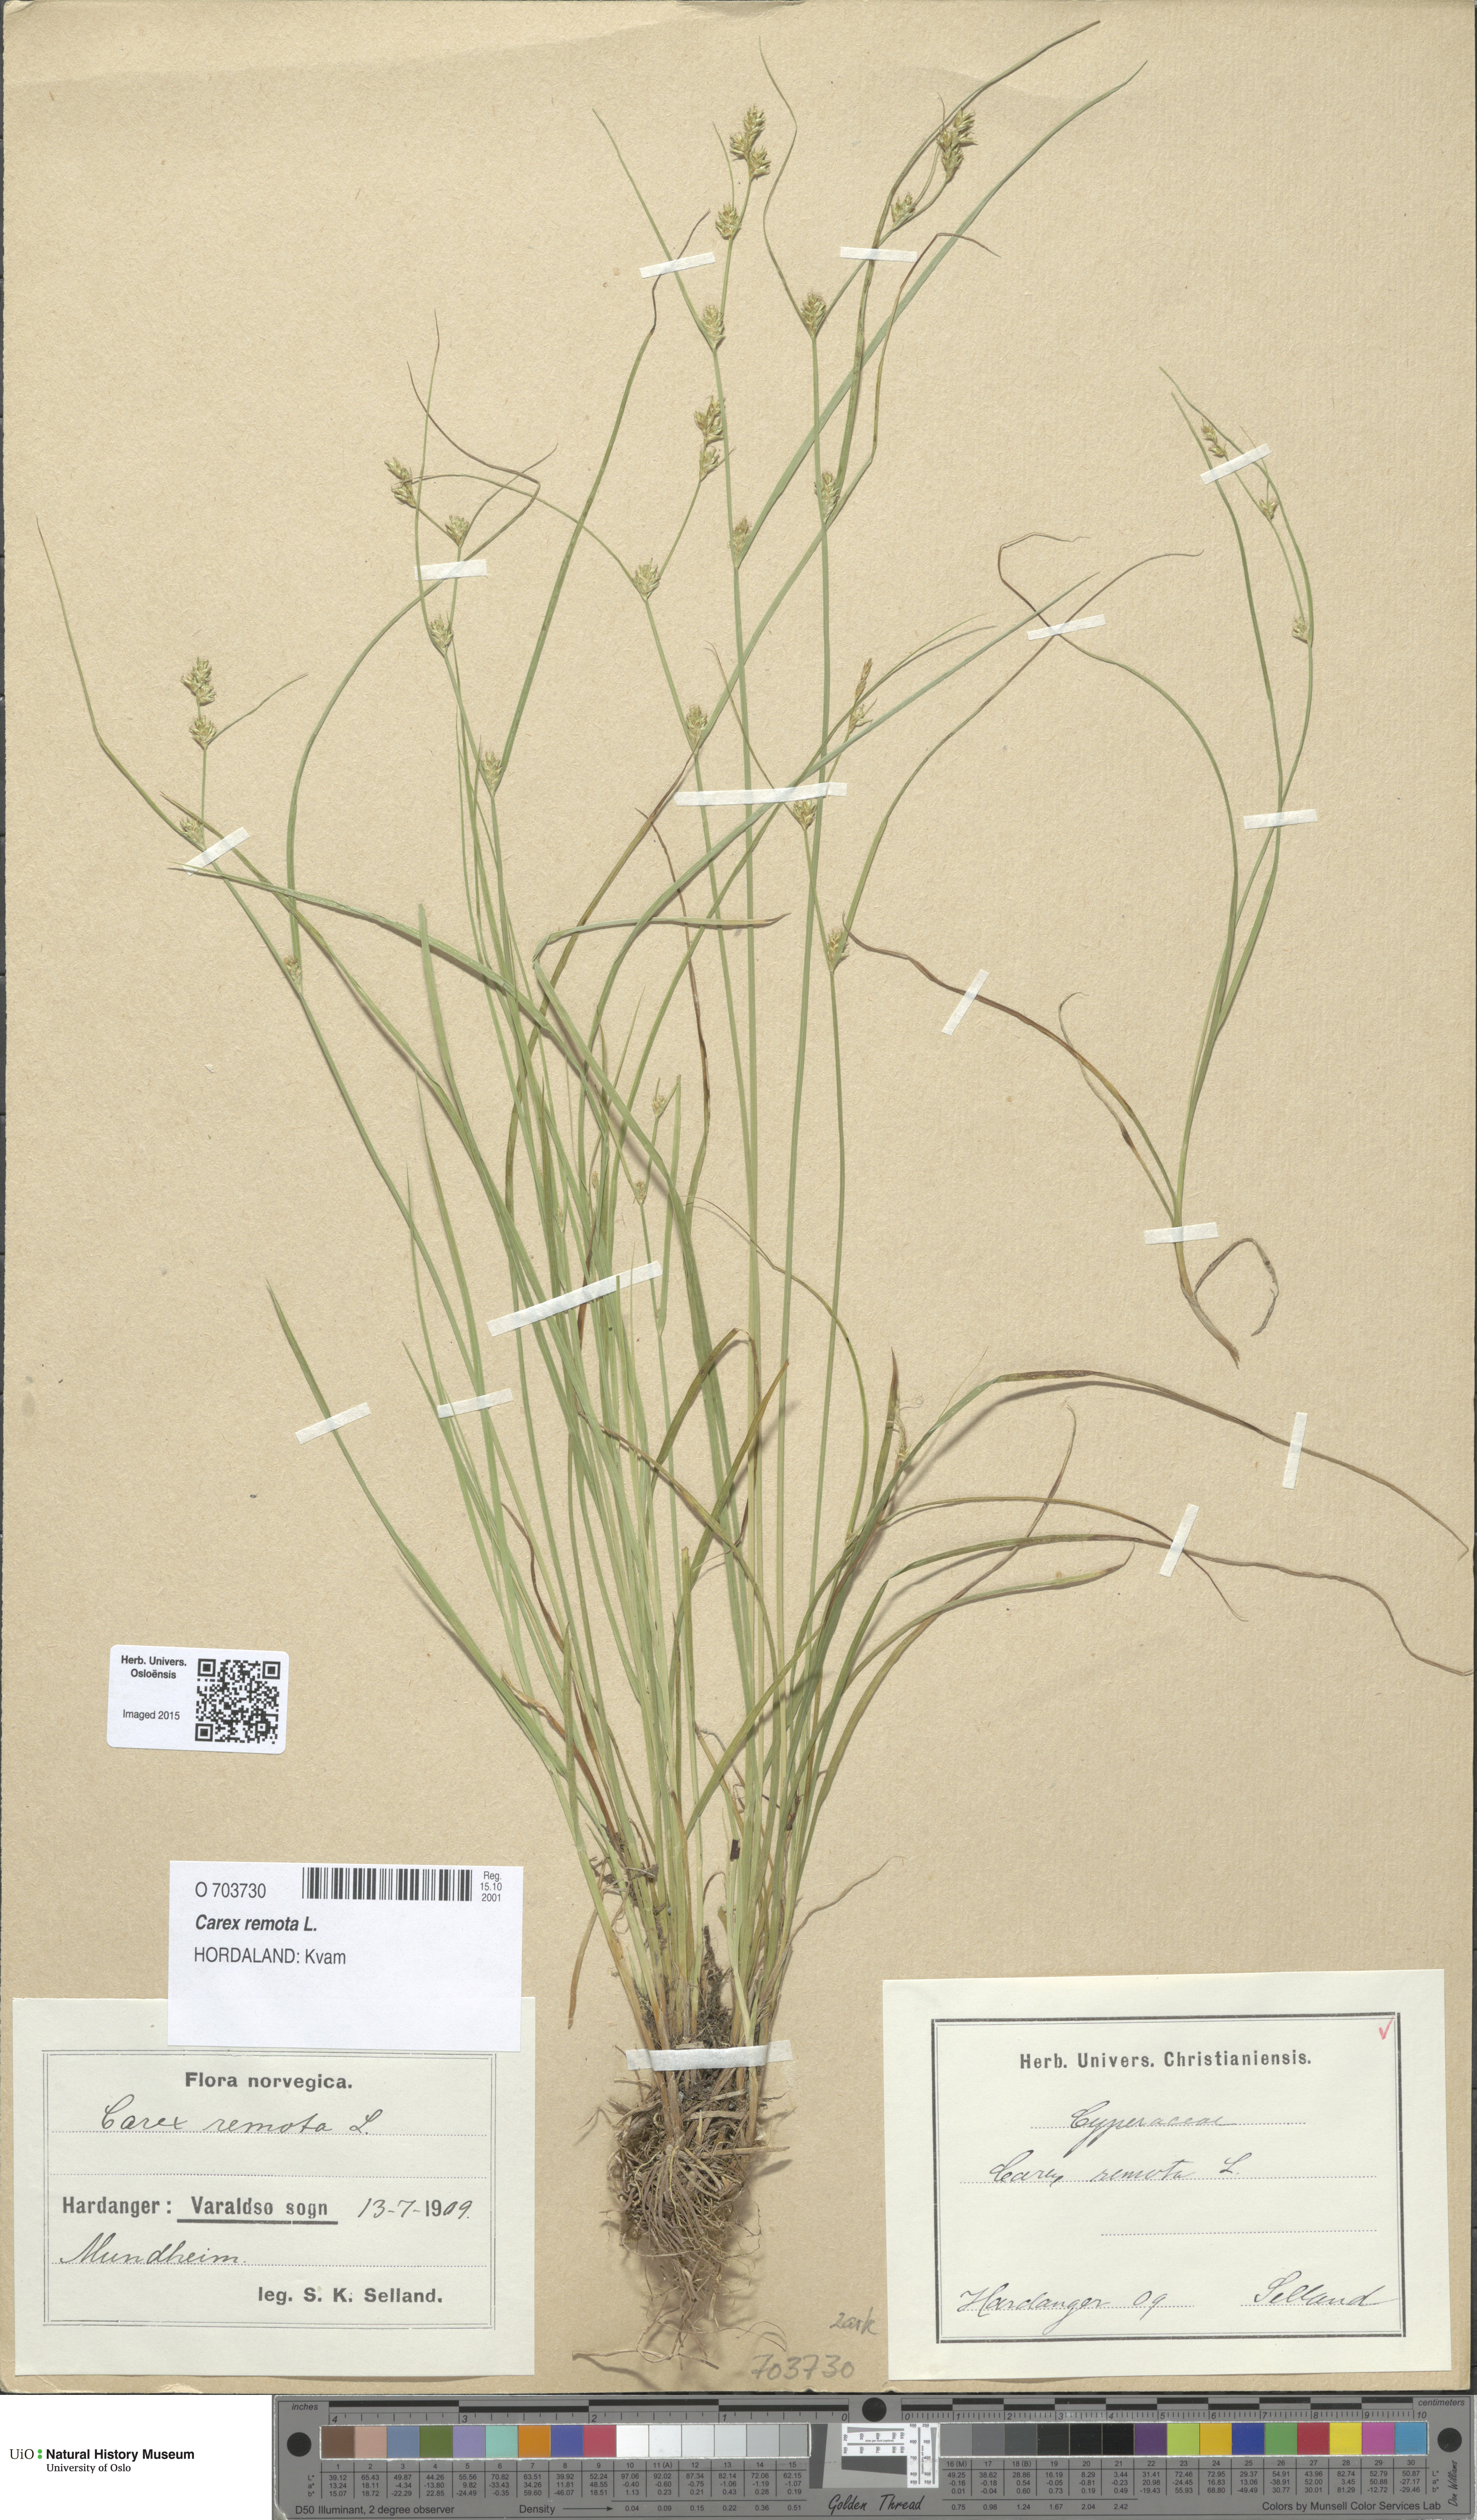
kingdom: Plantae
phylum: Tracheophyta
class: Liliopsida
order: Poales
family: Cyperaceae
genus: Carex
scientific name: Carex remota
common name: Remote sedge
